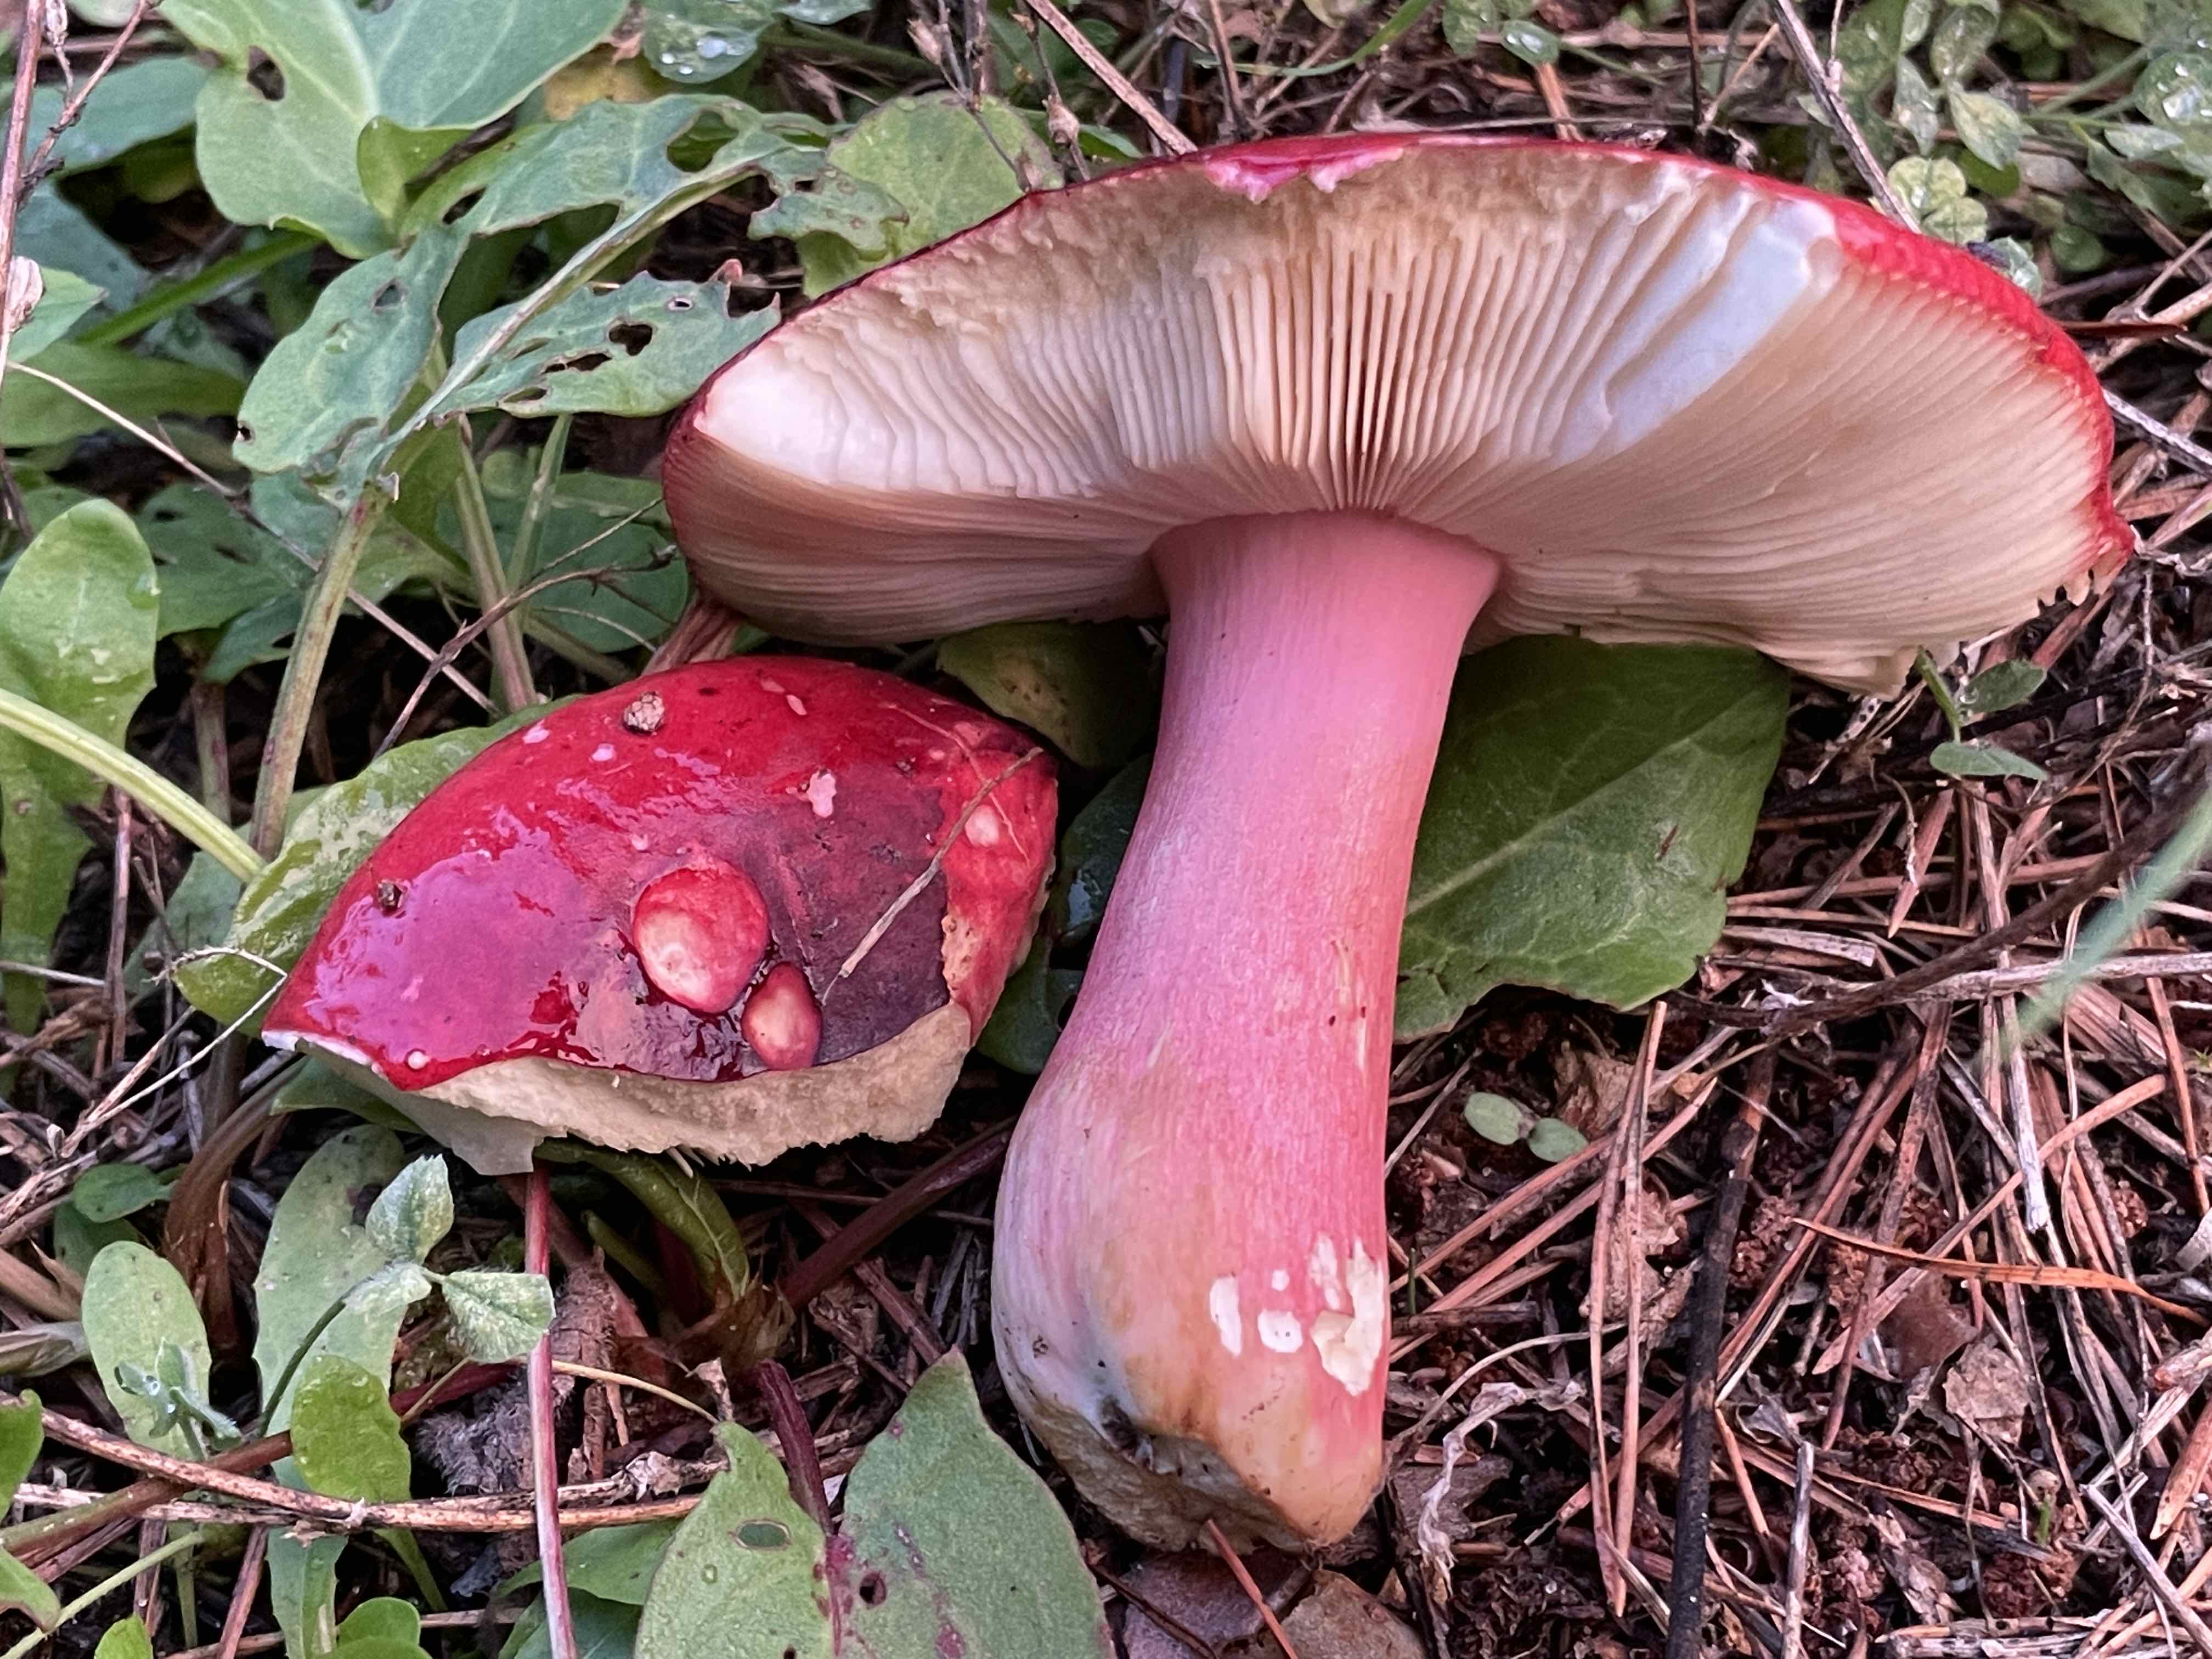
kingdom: Fungi
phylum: Basidiomycota
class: Agaricomycetes
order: Russulales
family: Russulaceae
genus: Russula
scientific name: Russula xerampelina
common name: hummer-skørhat
